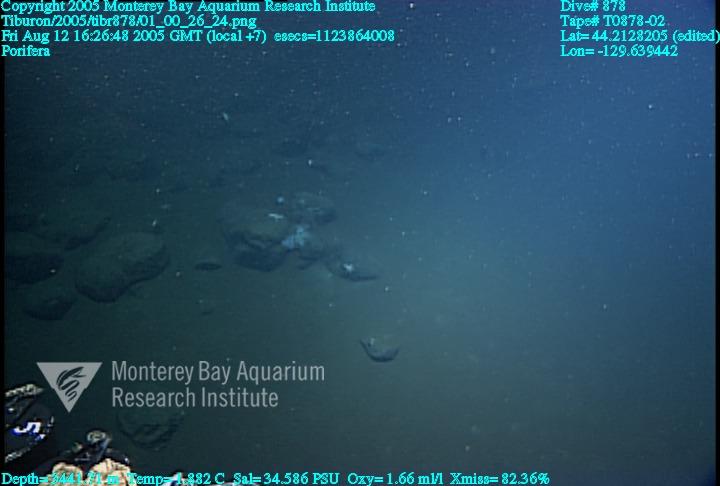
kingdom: Animalia
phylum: Porifera
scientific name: Porifera
